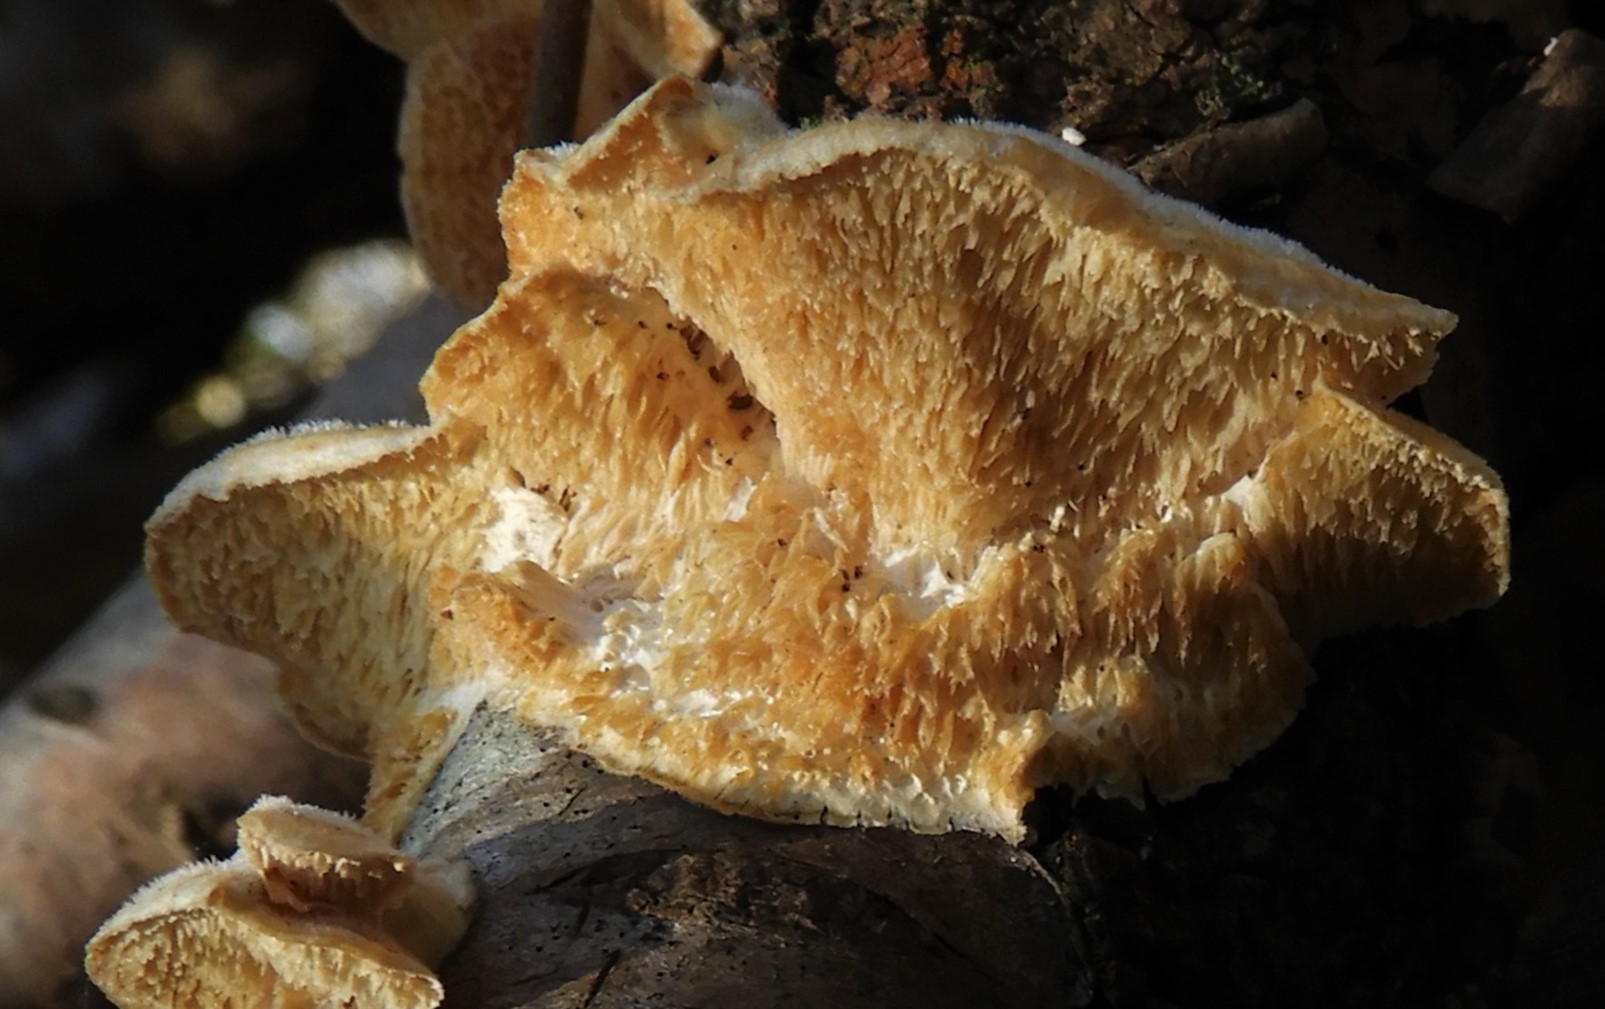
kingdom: Fungi
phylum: Basidiomycota
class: Agaricomycetes
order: Polyporales
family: Polyporaceae
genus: Trametes
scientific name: Trametes
